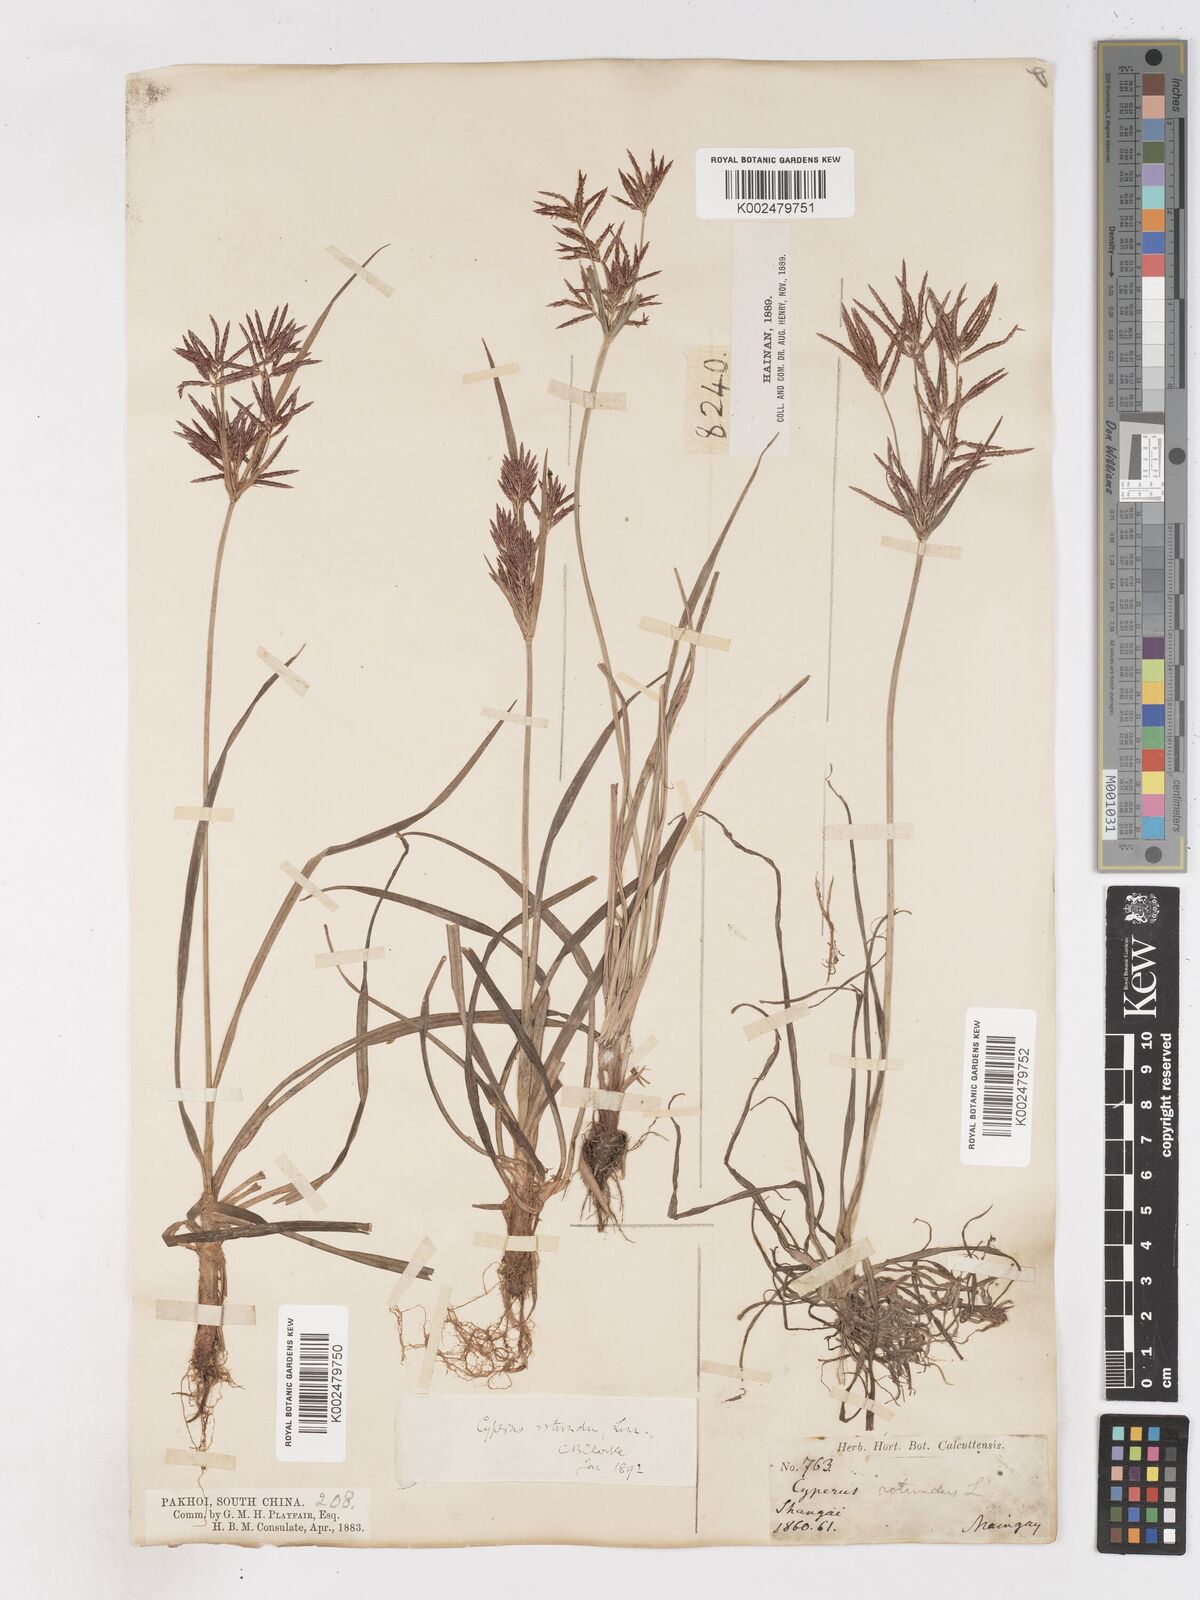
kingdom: Plantae
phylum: Tracheophyta
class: Liliopsida
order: Poales
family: Cyperaceae
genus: Cyperus
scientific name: Cyperus rotundus
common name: Nutgrass
